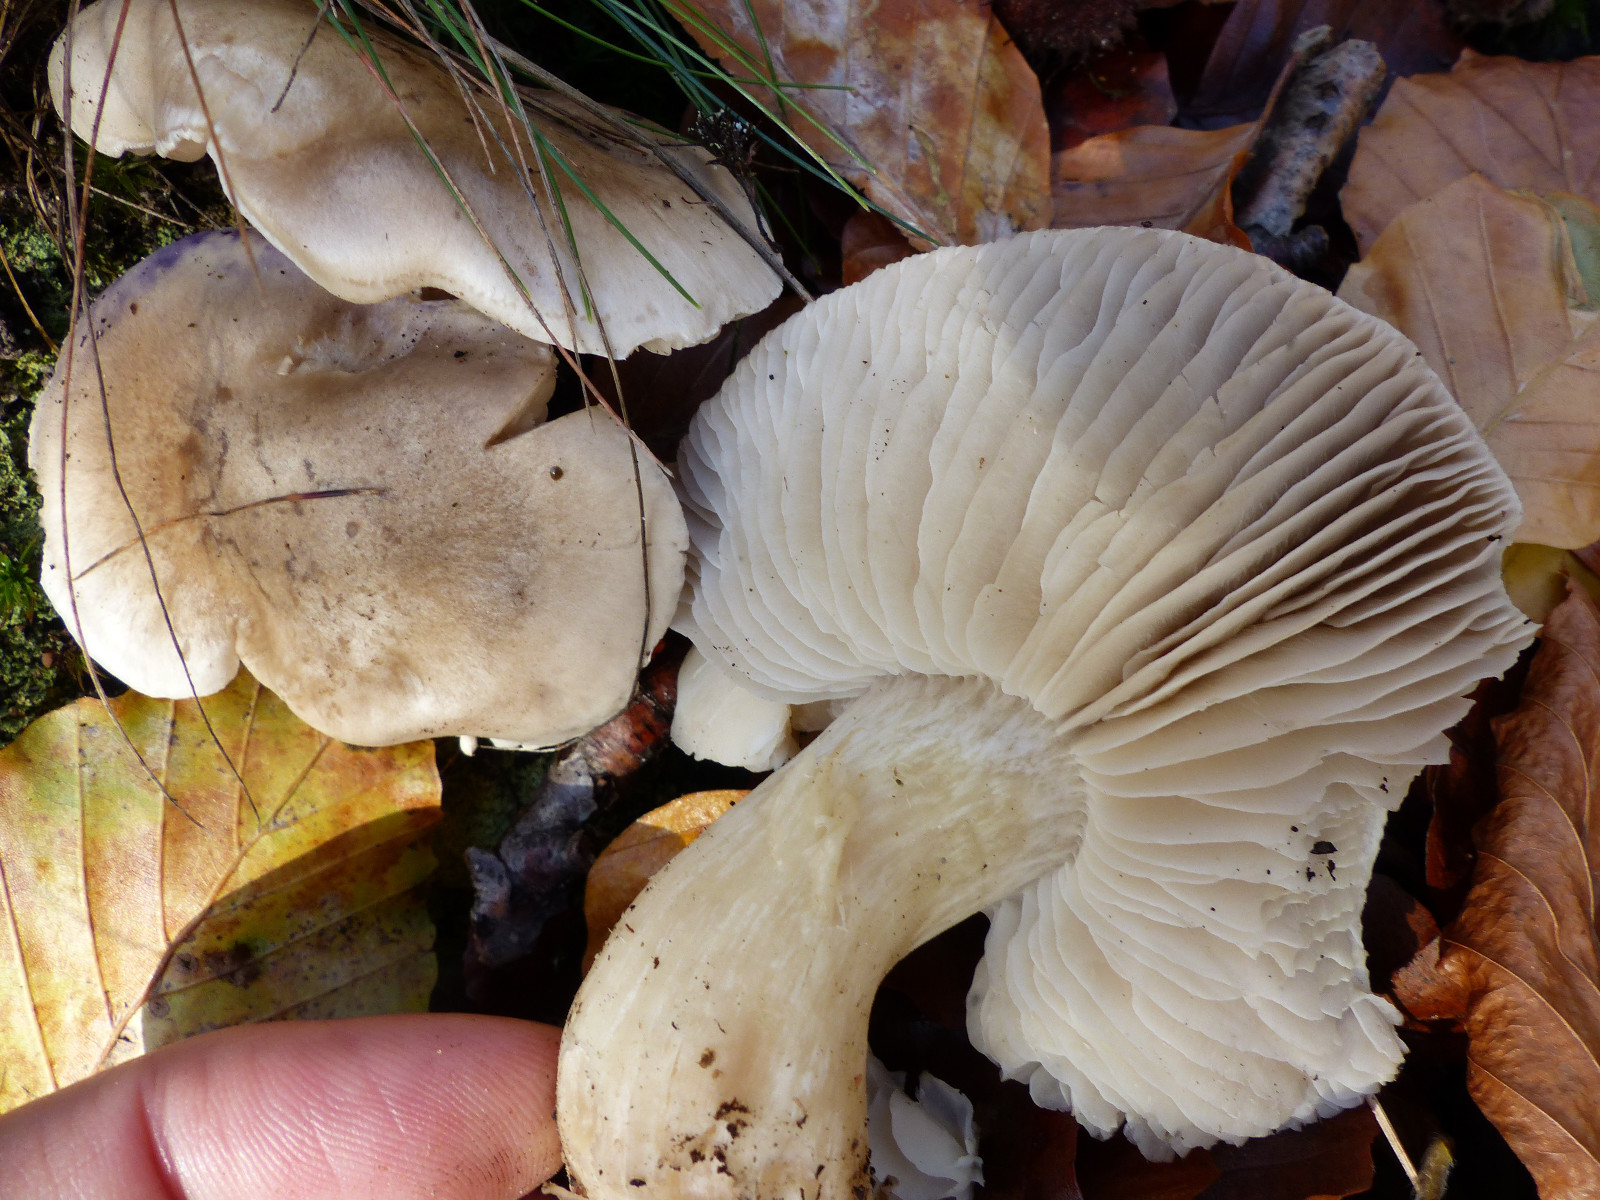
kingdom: Fungi
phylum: Basidiomycota
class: Agaricomycetes
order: Agaricales
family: Tricholomataceae
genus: Tricholoma
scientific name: Tricholoma
